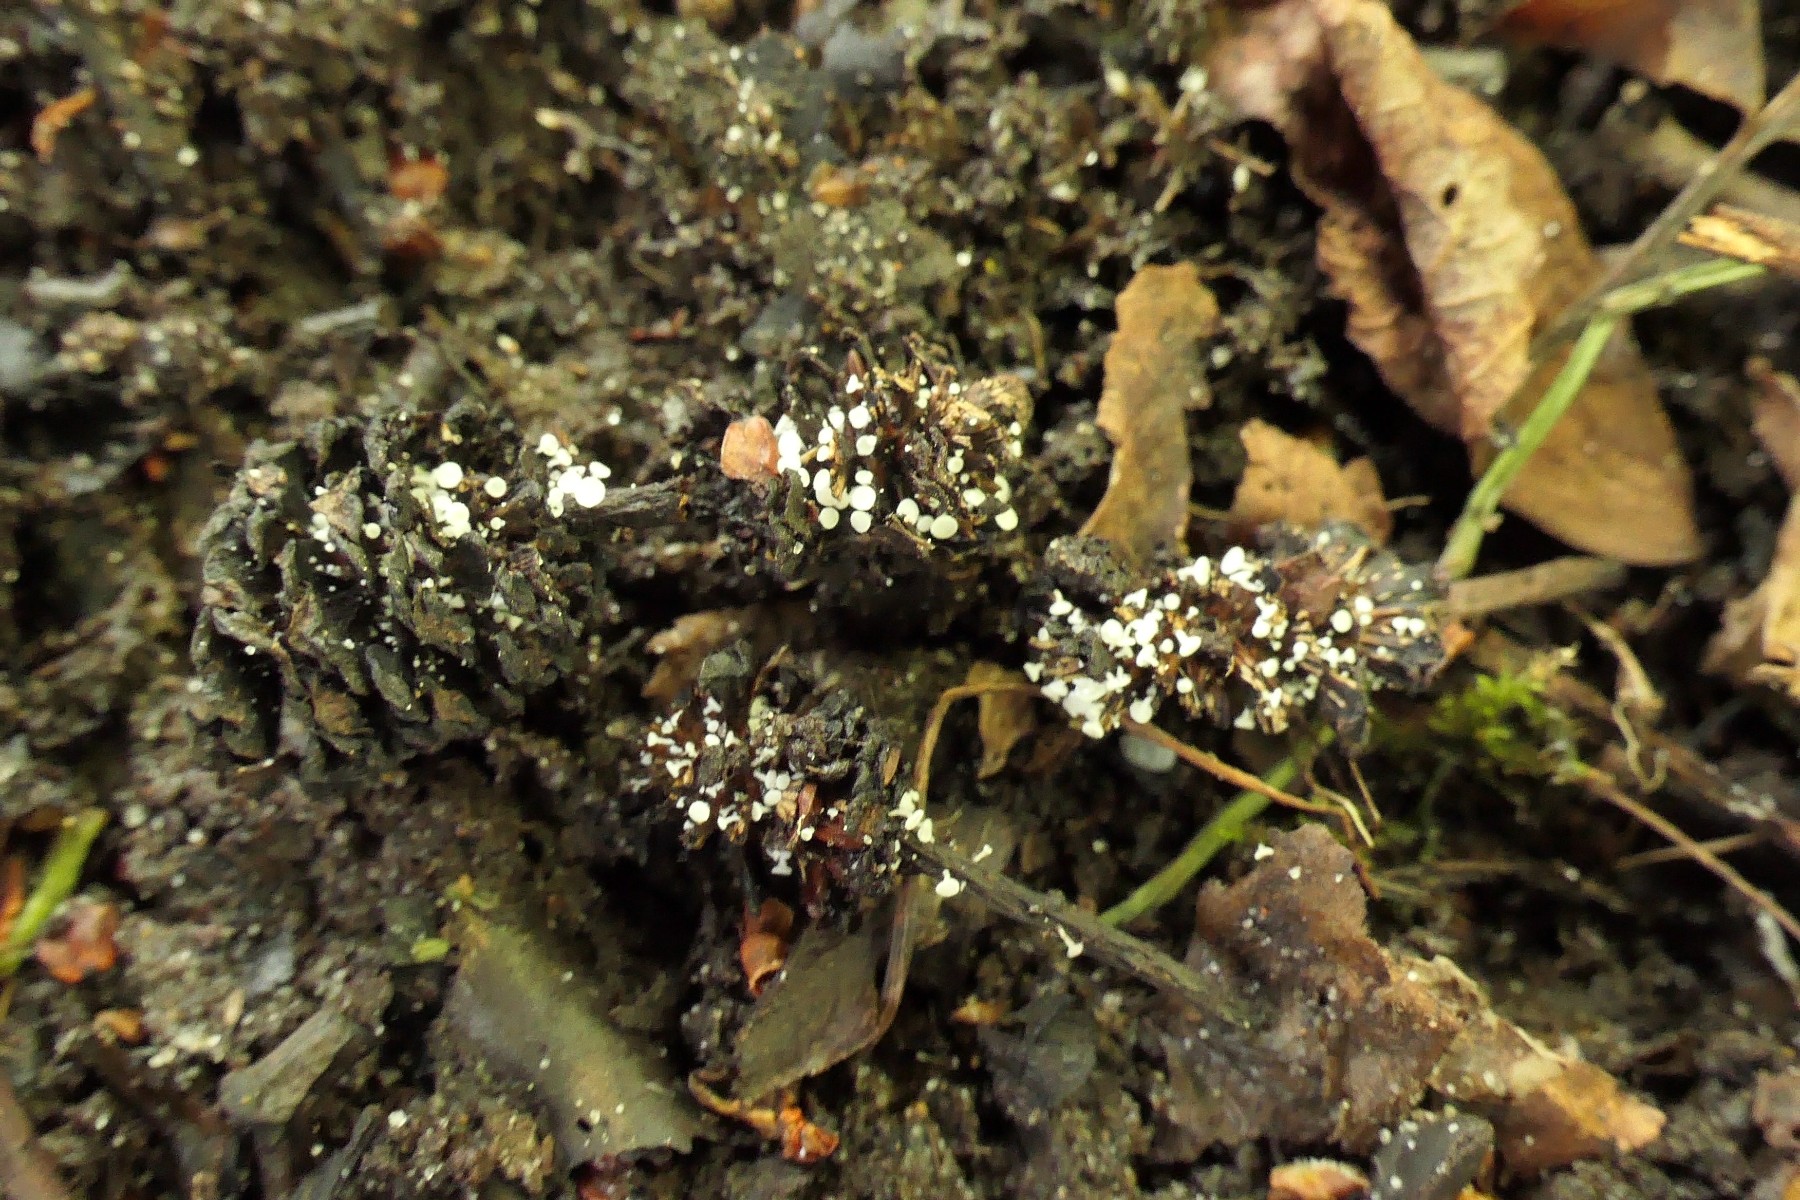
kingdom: Fungi
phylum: Ascomycota
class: Leotiomycetes
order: Helotiales
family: Lachnaceae
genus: Lachnum
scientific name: Lachnum virgineum
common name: jomfru-frynseskive
